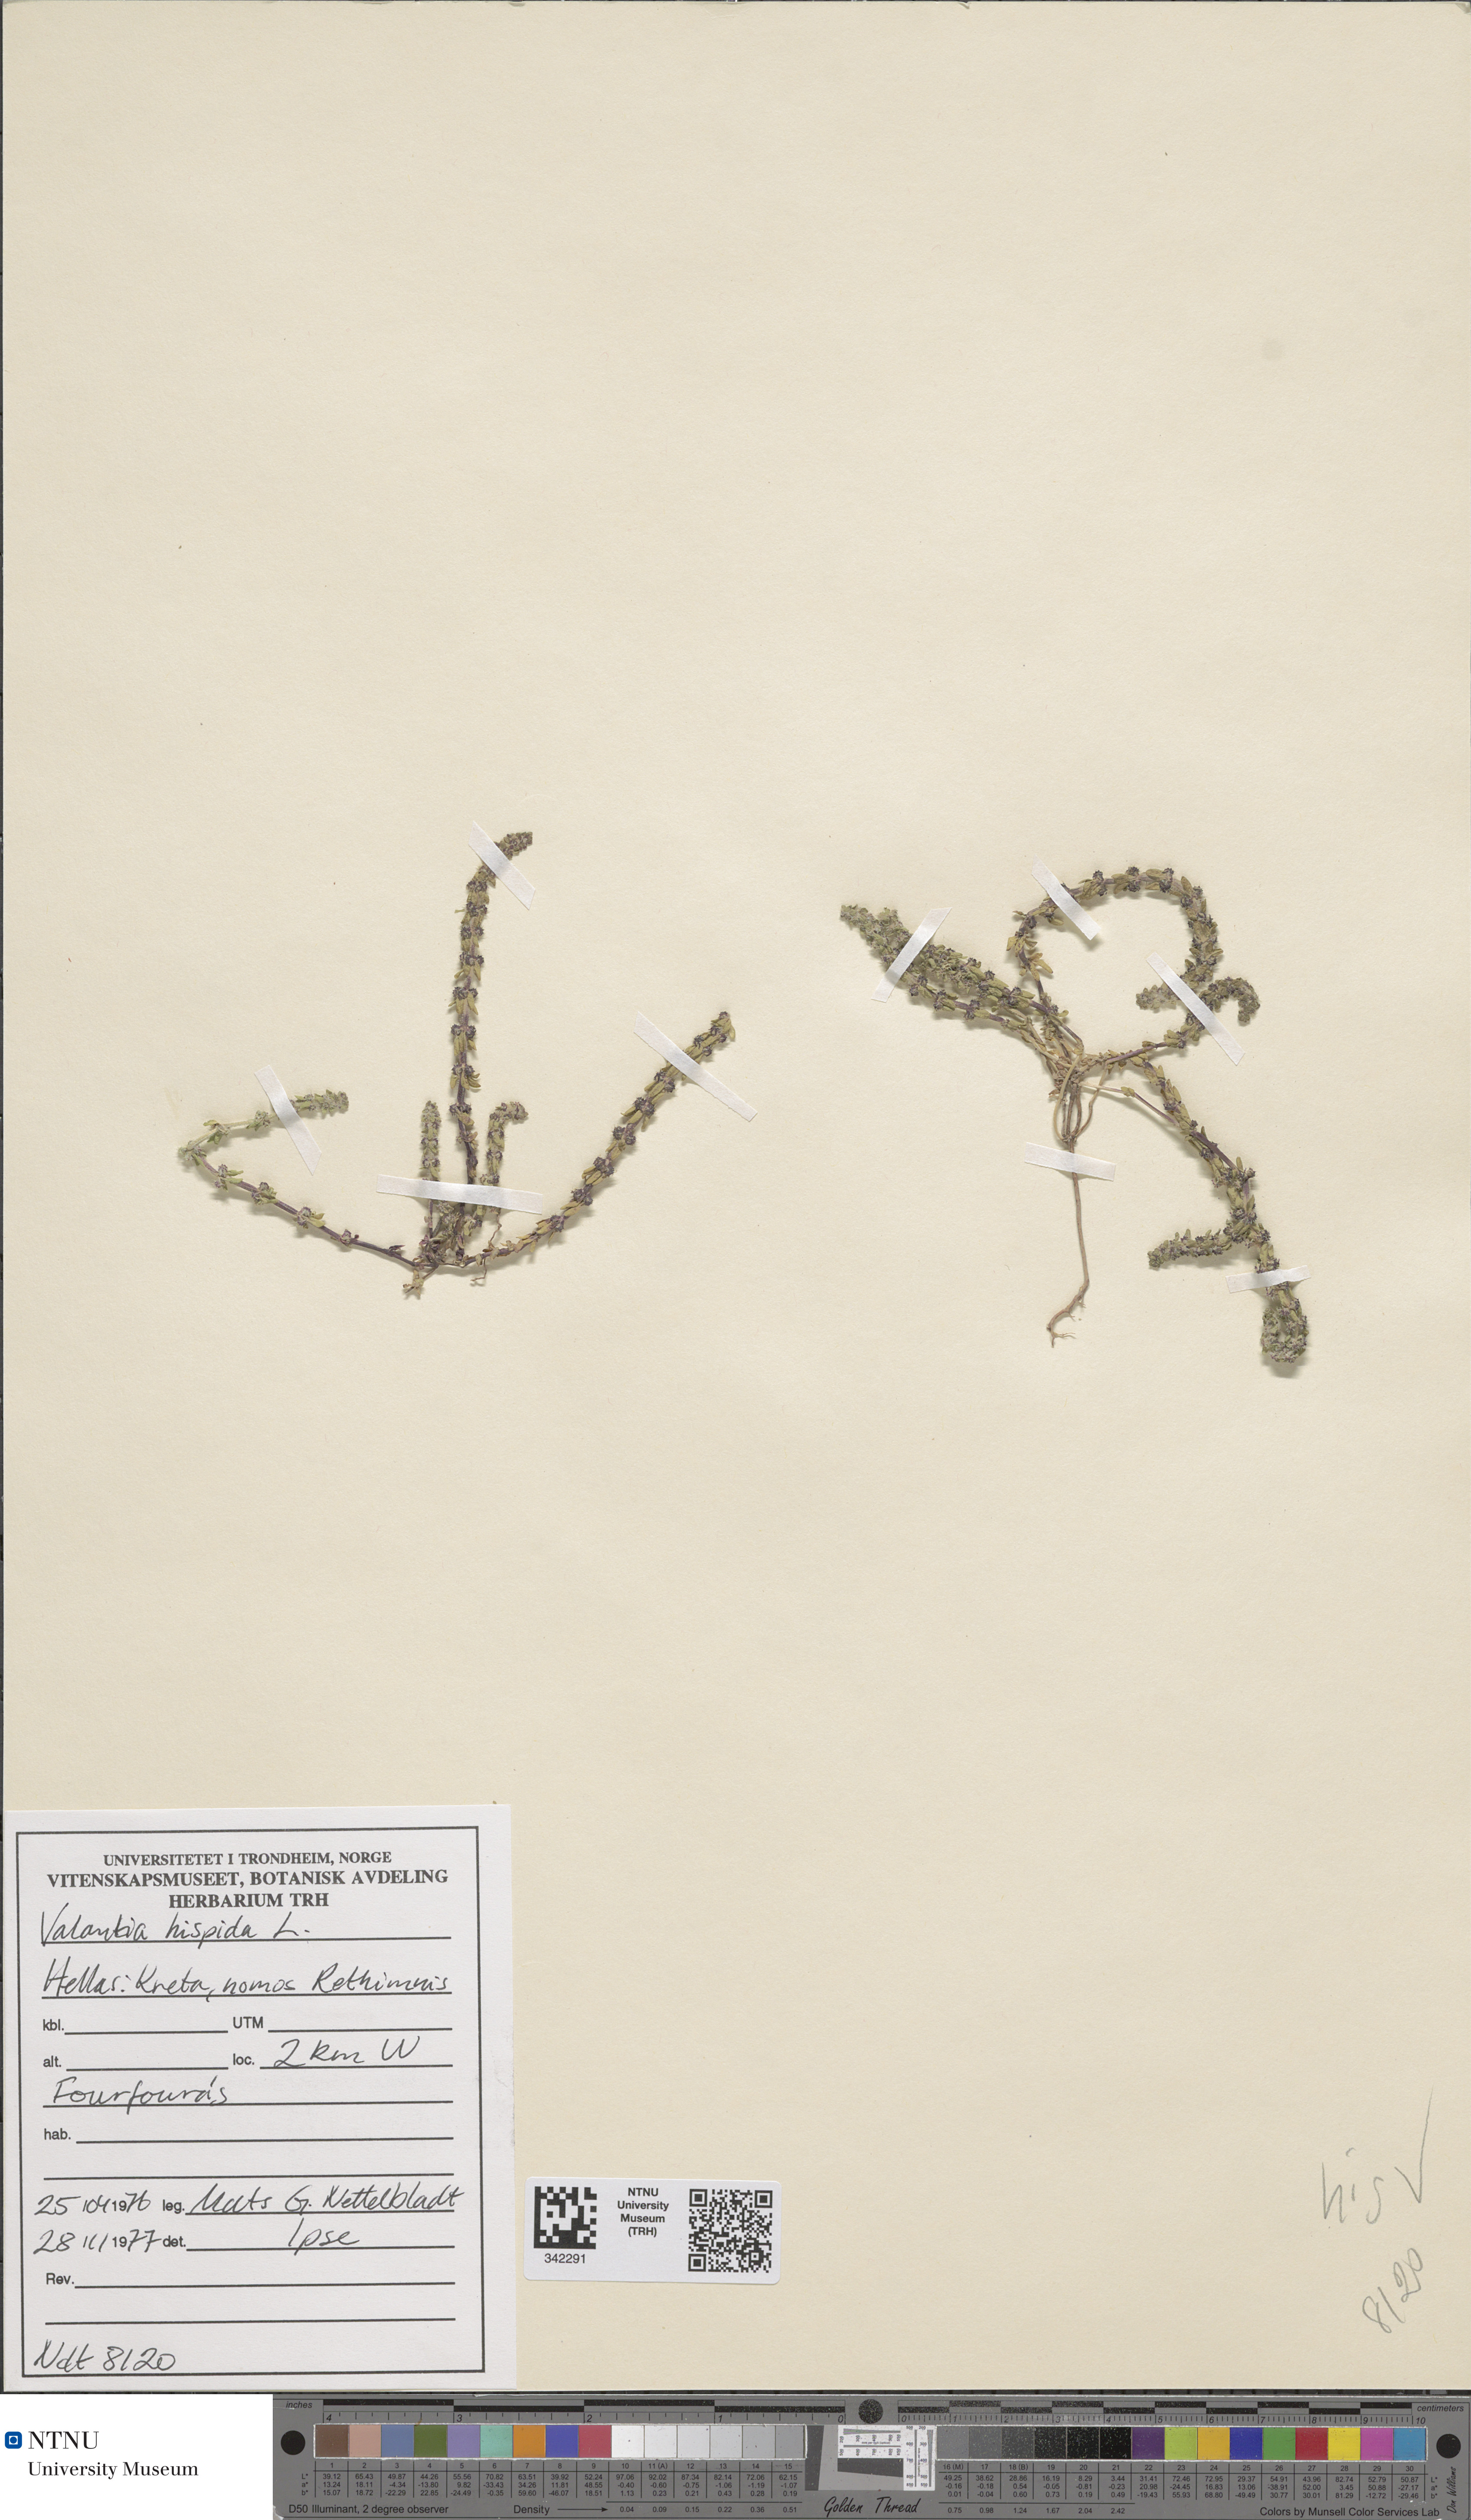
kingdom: Plantae
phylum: Tracheophyta
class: Magnoliopsida
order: Gentianales
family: Rubiaceae
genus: Valantia
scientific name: Valantia hispida
